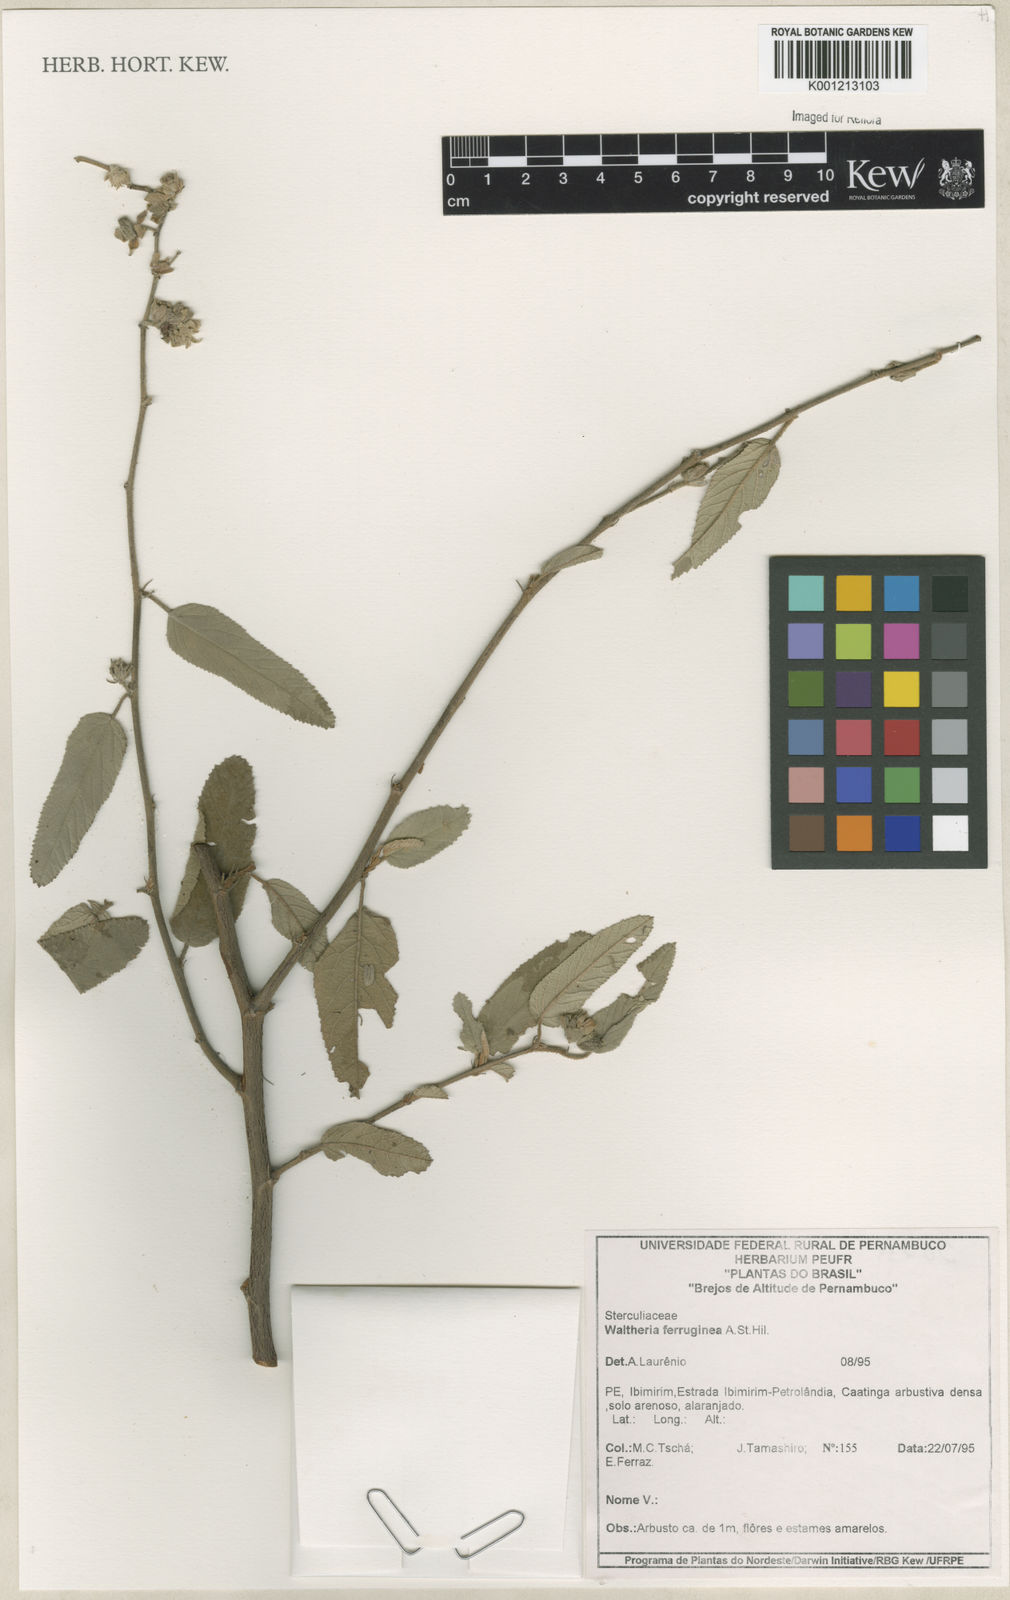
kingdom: Plantae
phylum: Tracheophyta
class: Magnoliopsida
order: Malvales
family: Malvaceae
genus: Waltheria
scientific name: Waltheria ferruginea
